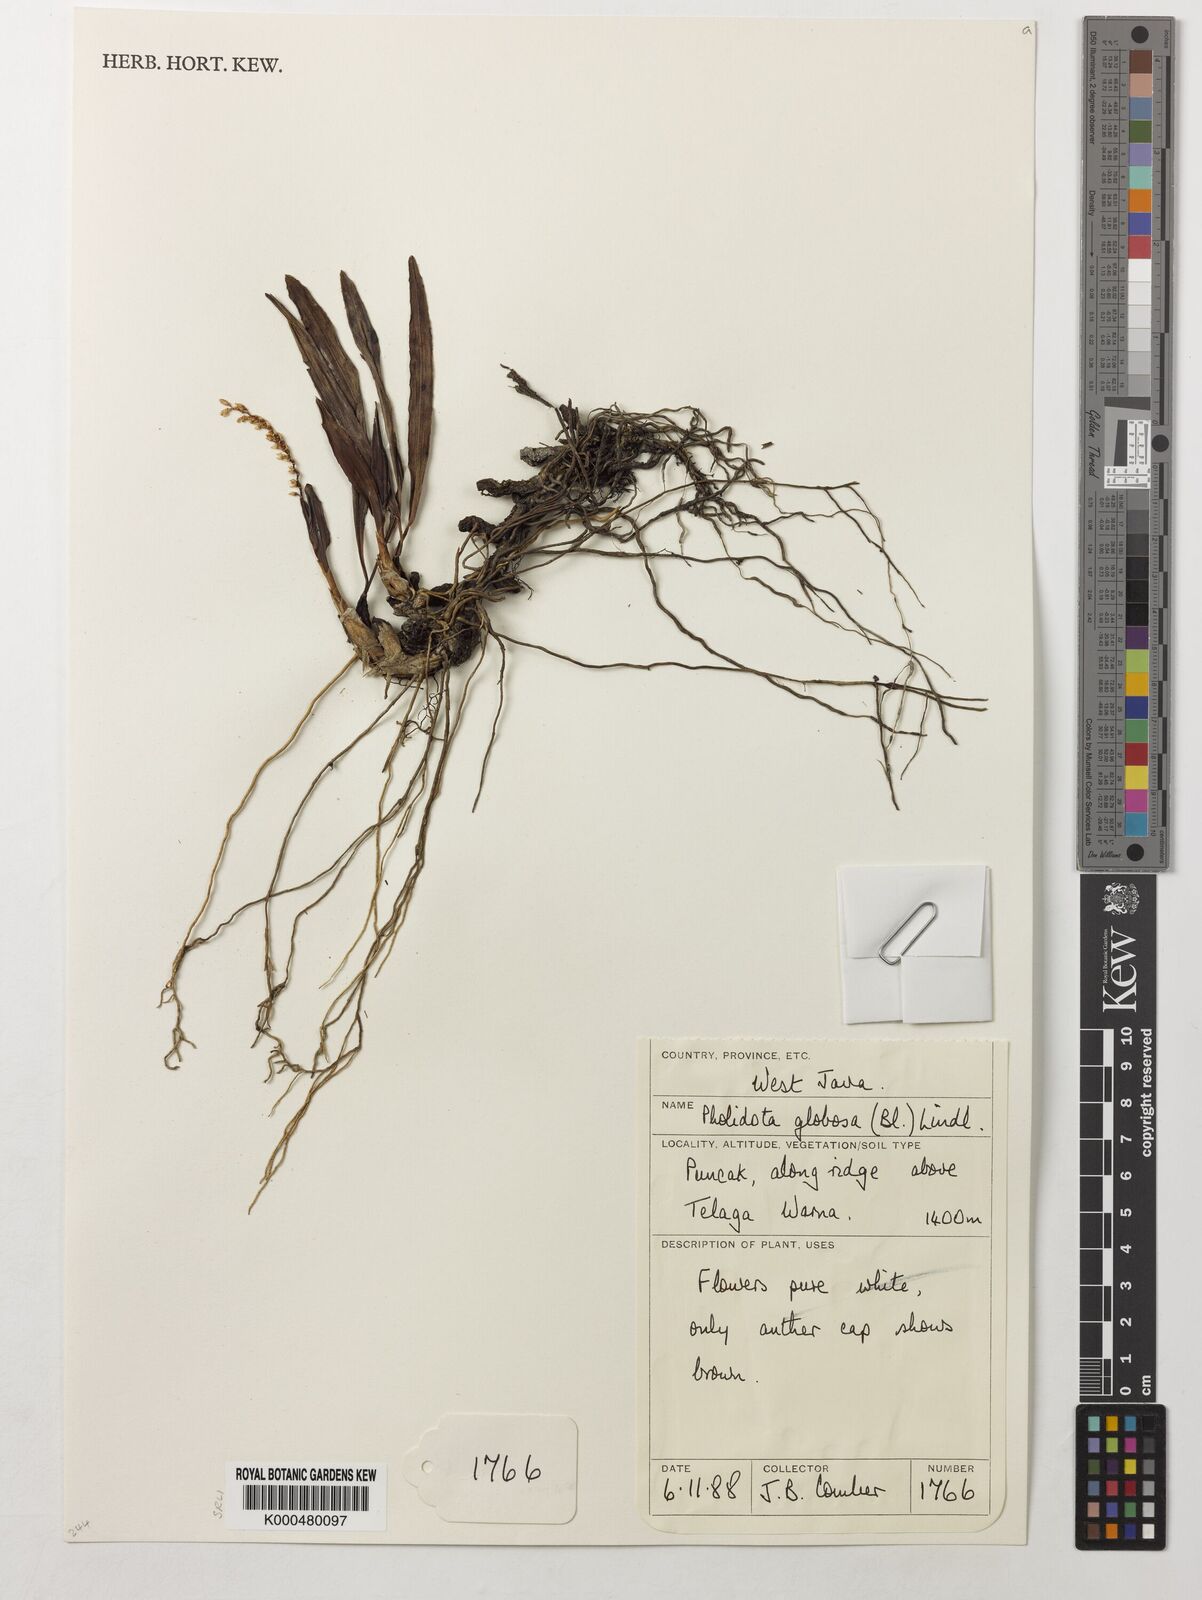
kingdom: Plantae
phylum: Tracheophyta
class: Liliopsida
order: Asparagales
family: Orchidaceae
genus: Coelogyne
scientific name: Coelogyne globosa
